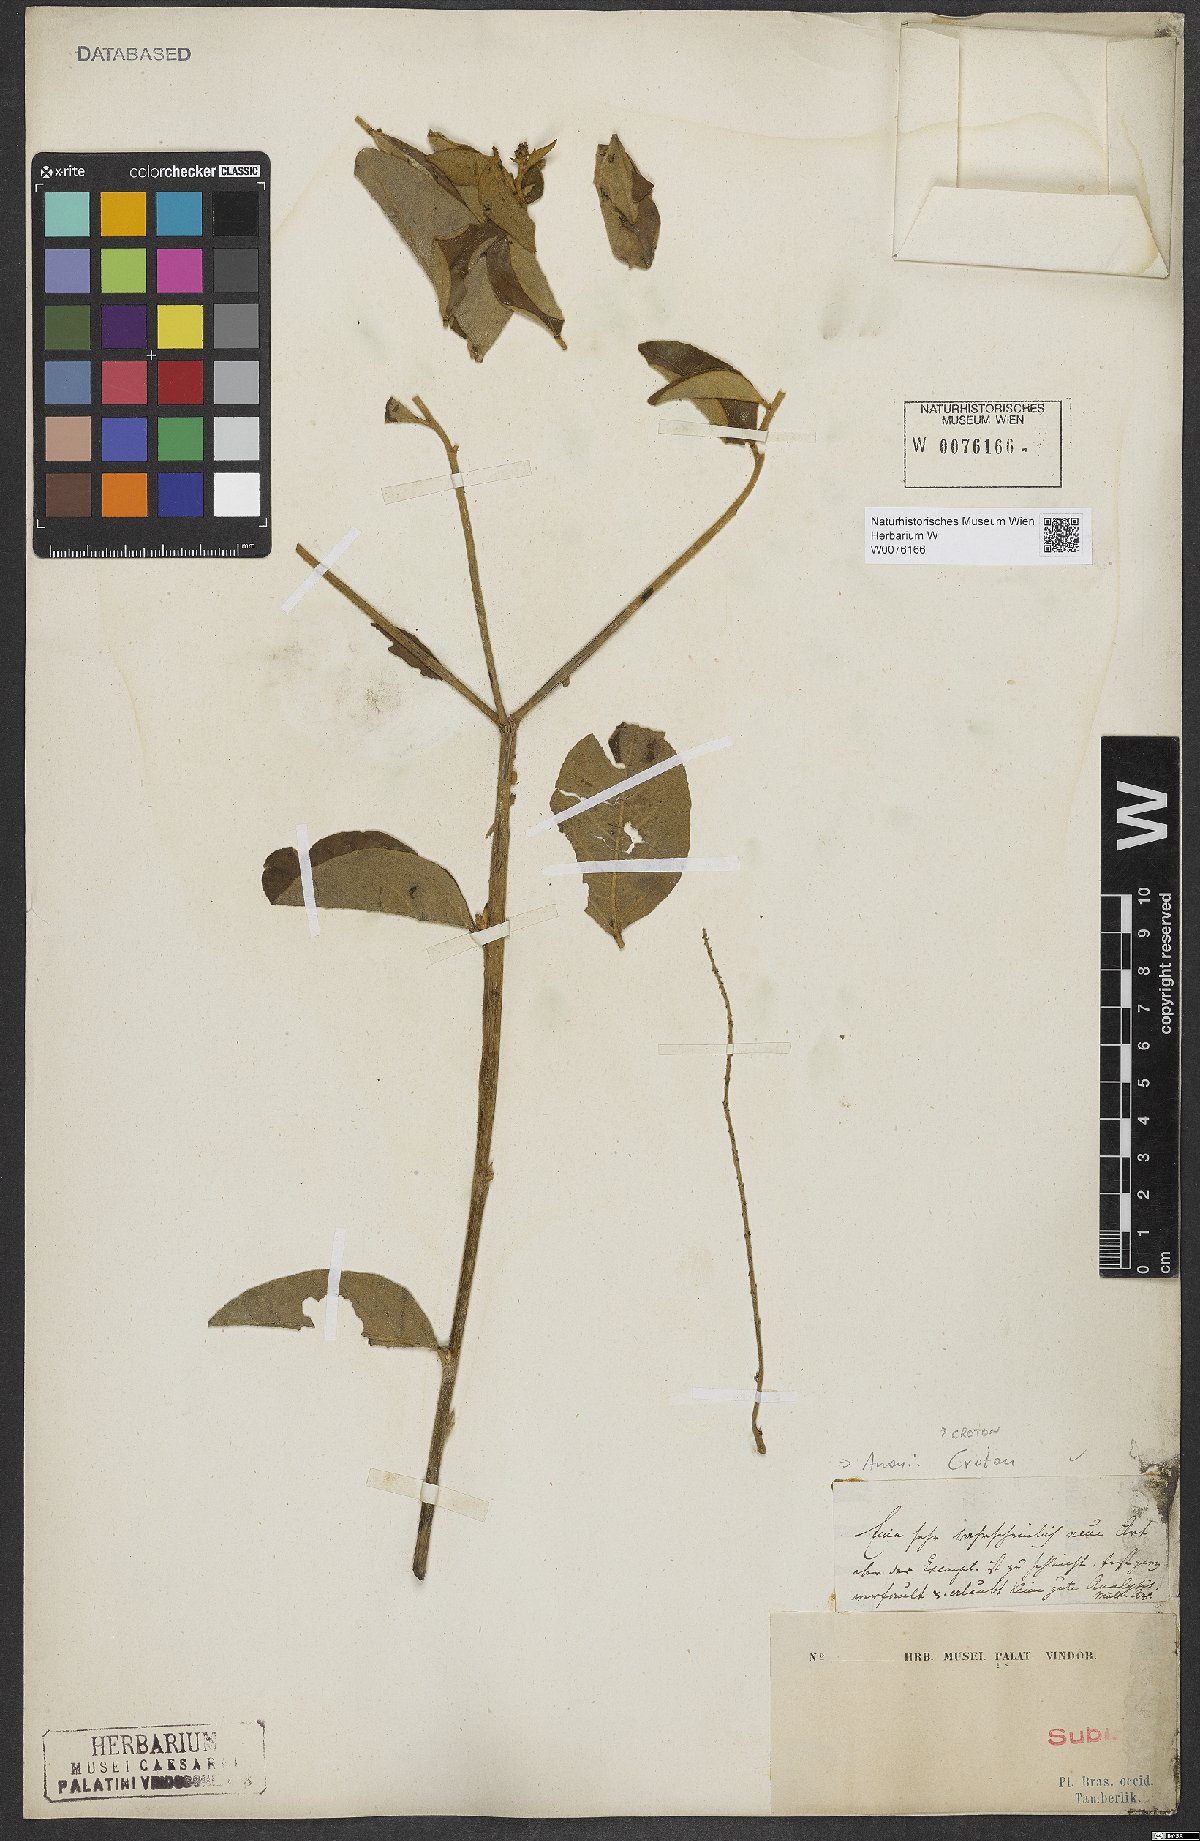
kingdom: Plantae
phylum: Tracheophyta
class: Magnoliopsida
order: Malpighiales
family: Euphorbiaceae
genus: Croton
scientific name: Croton
